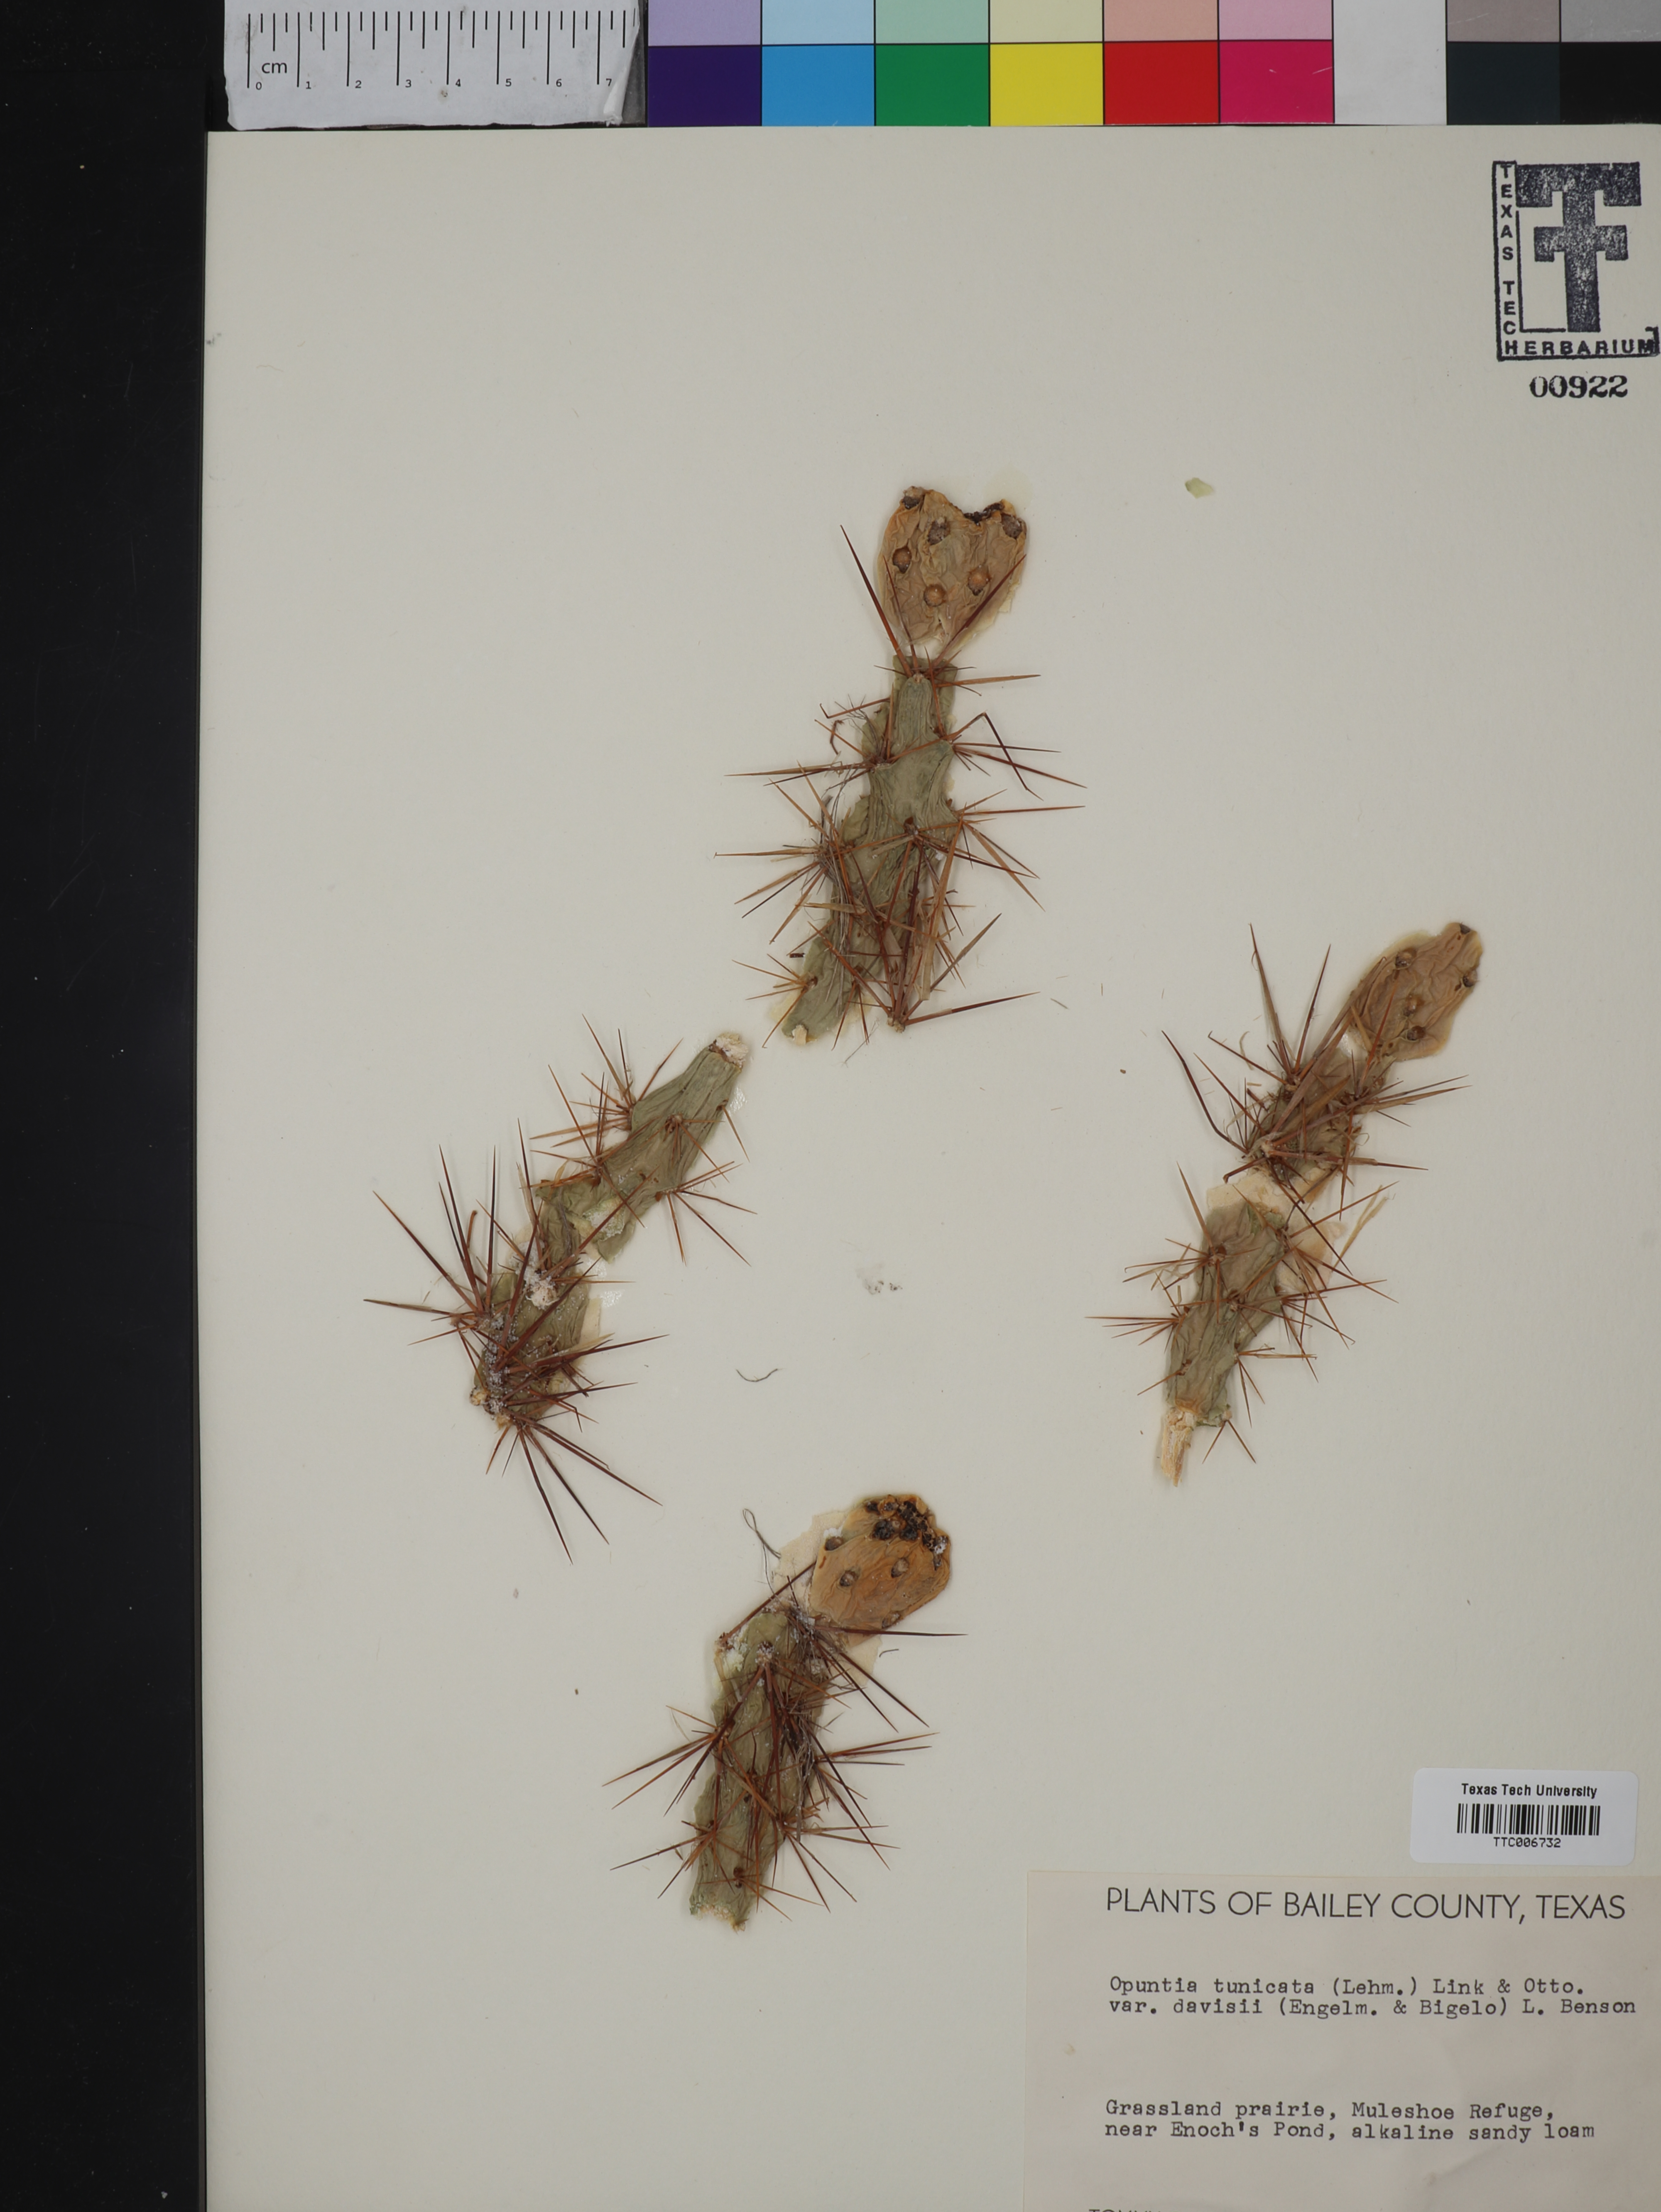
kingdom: Plantae
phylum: Tracheophyta
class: Magnoliopsida
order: Caryophyllales
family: Cactaceae
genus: Cylindropuntia
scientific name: Cylindropuntia davisii
